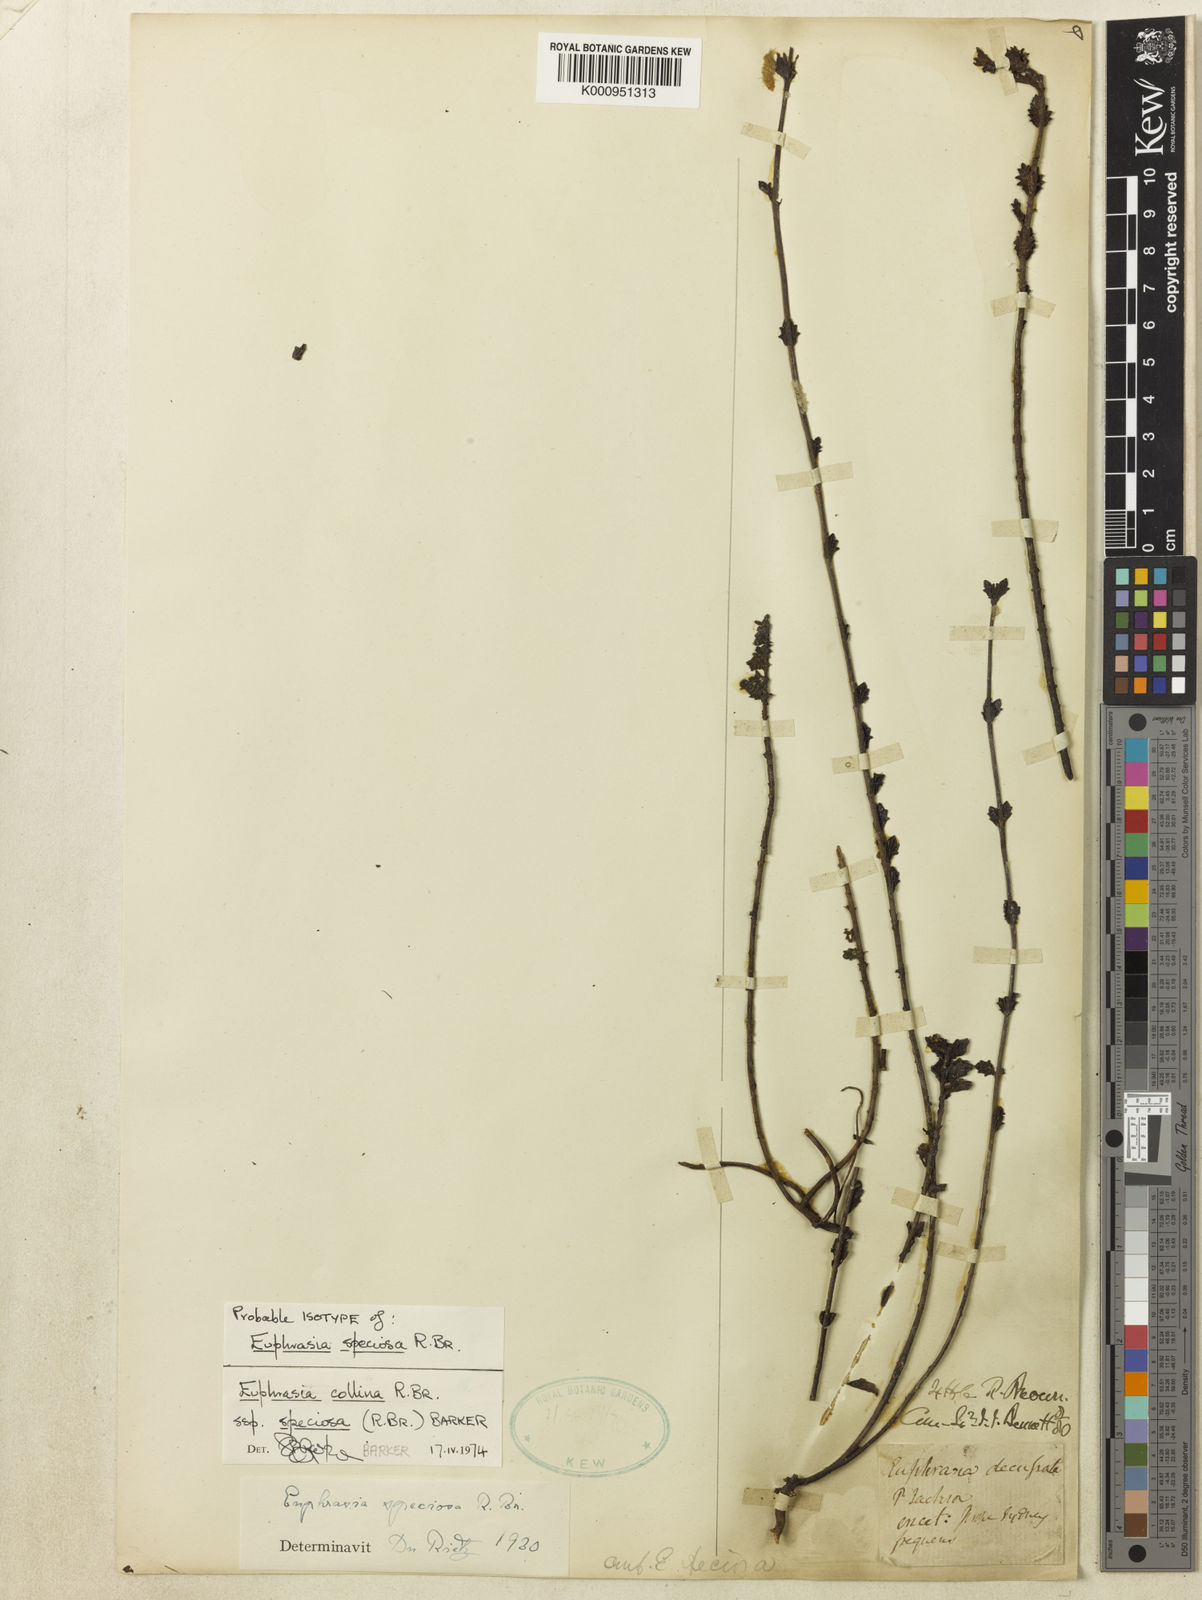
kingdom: Plantae
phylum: Tracheophyta
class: Magnoliopsida
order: Lamiales
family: Orobanchaceae
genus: Euphrasia
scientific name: Euphrasia collina
